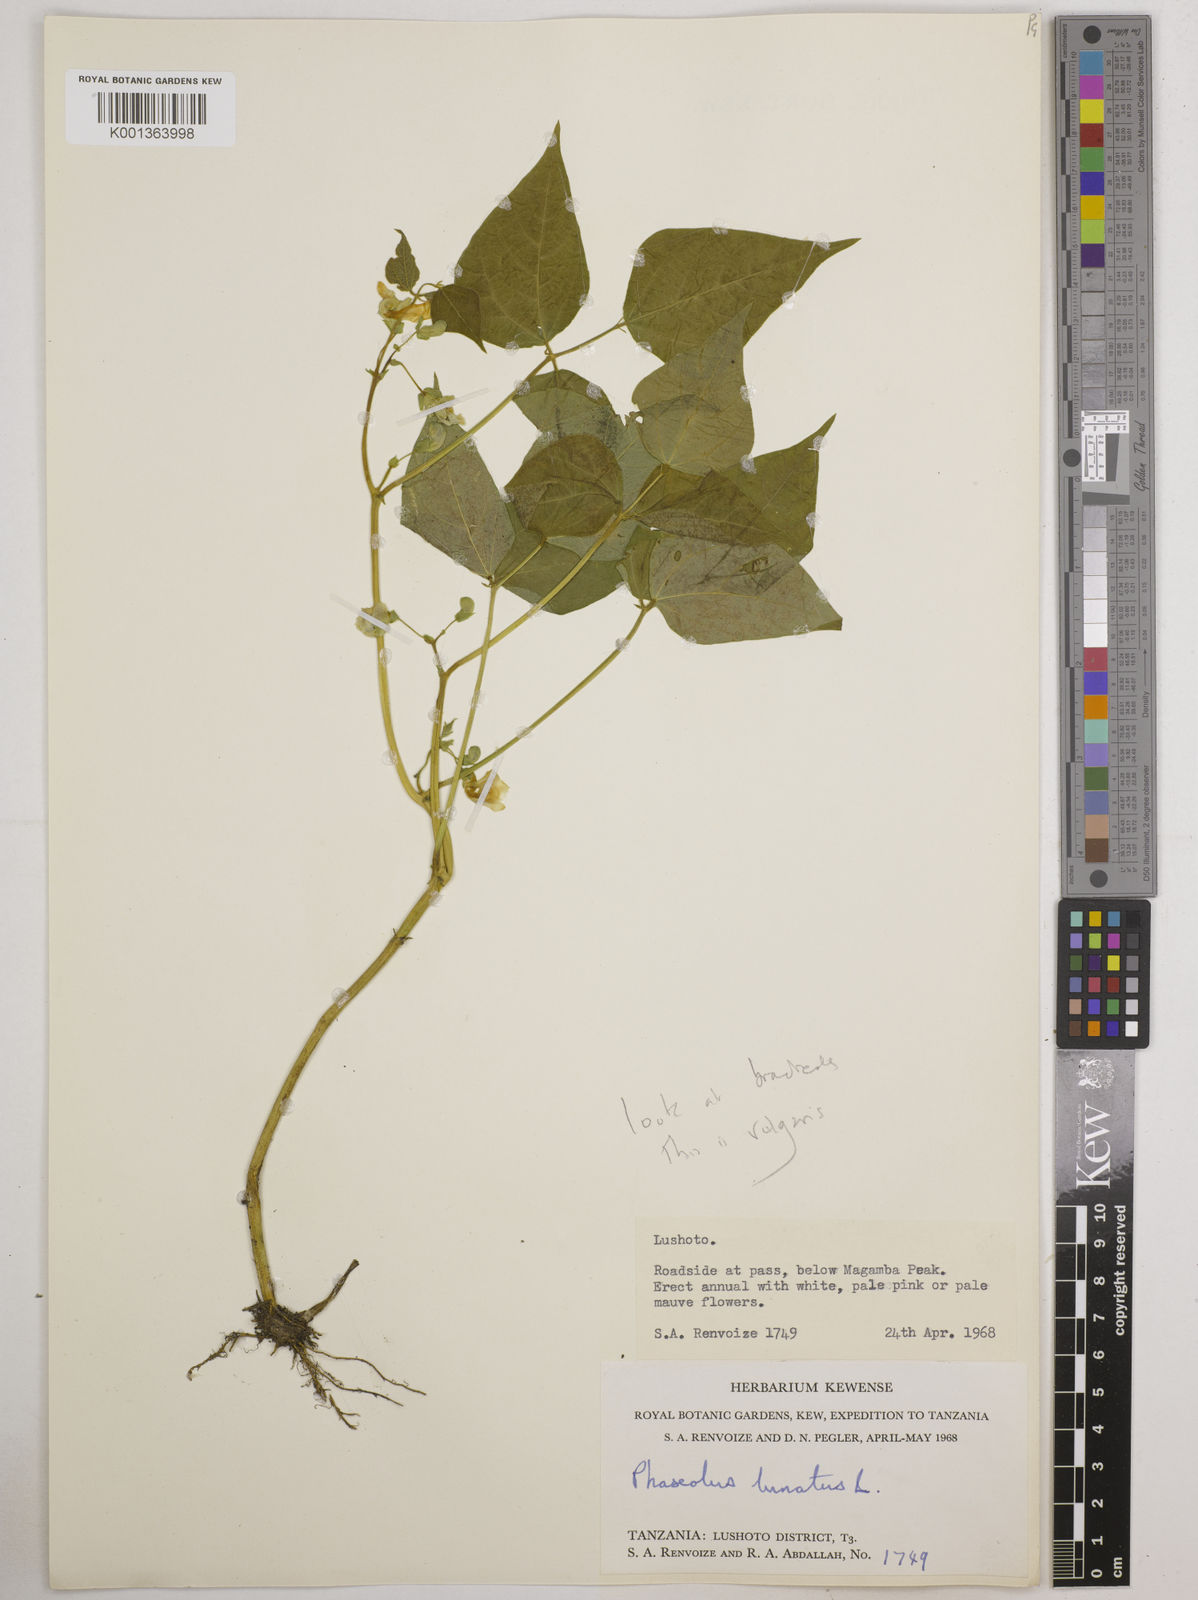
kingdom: Plantae
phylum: Tracheophyta
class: Magnoliopsida
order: Fabales
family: Fabaceae
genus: Phaseolus
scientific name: Phaseolus lunatus
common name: Sieva bean
